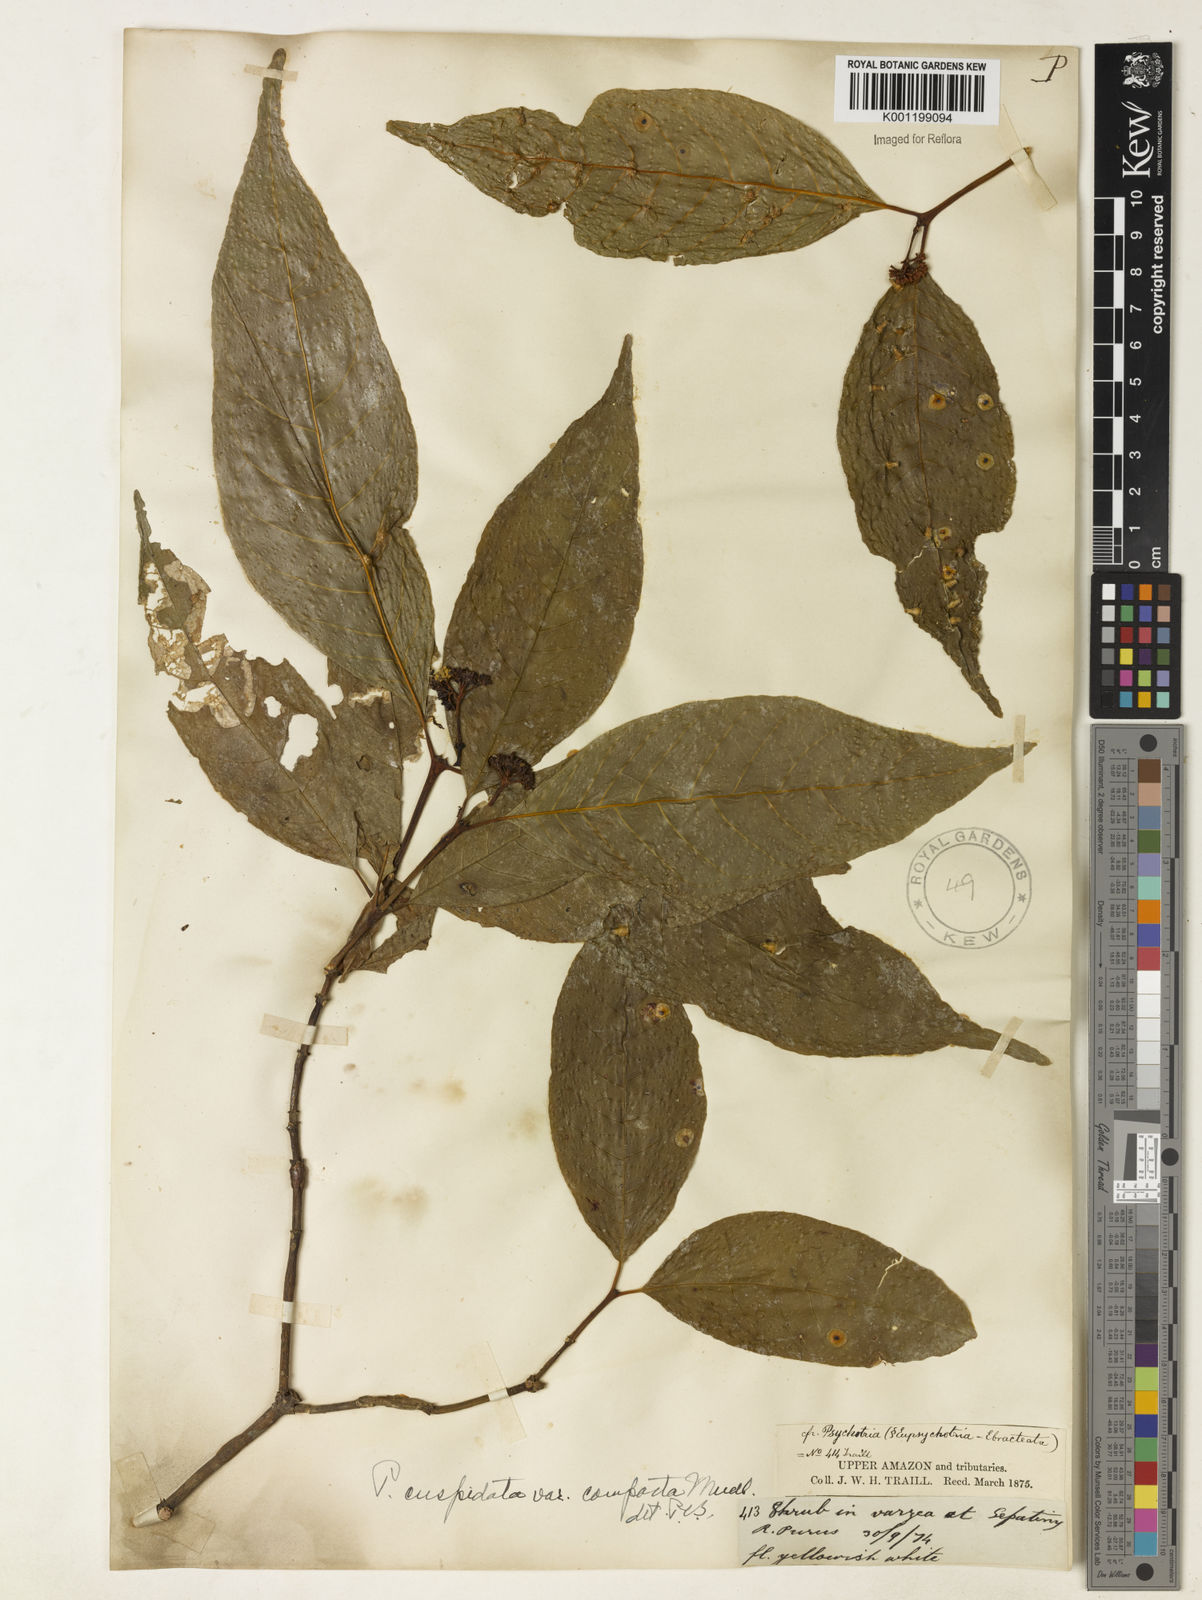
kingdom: Plantae
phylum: Tracheophyta
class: Magnoliopsida
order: Gentianales
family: Rubiaceae
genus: Palicourea
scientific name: Palicourea cuspidata
